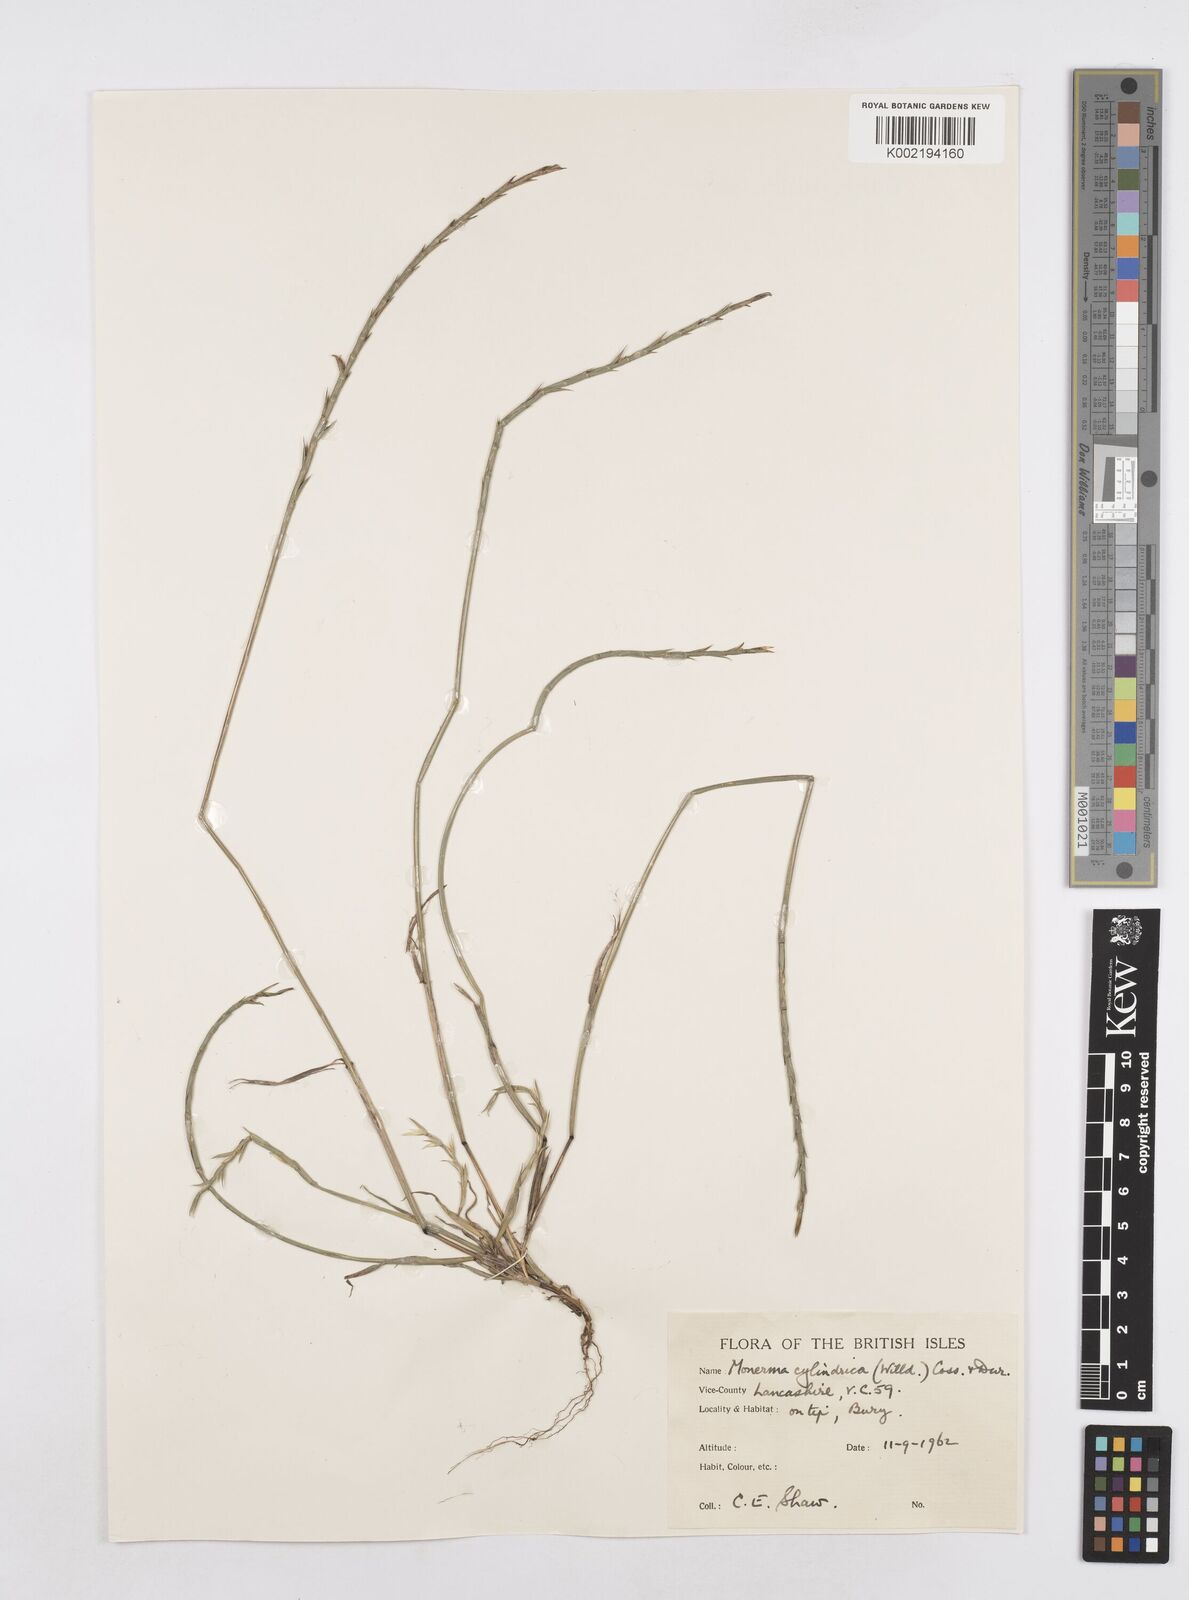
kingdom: Plantae
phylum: Tracheophyta
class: Liliopsida
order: Poales
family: Poaceae
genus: Parapholis
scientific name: Parapholis cylindrica
